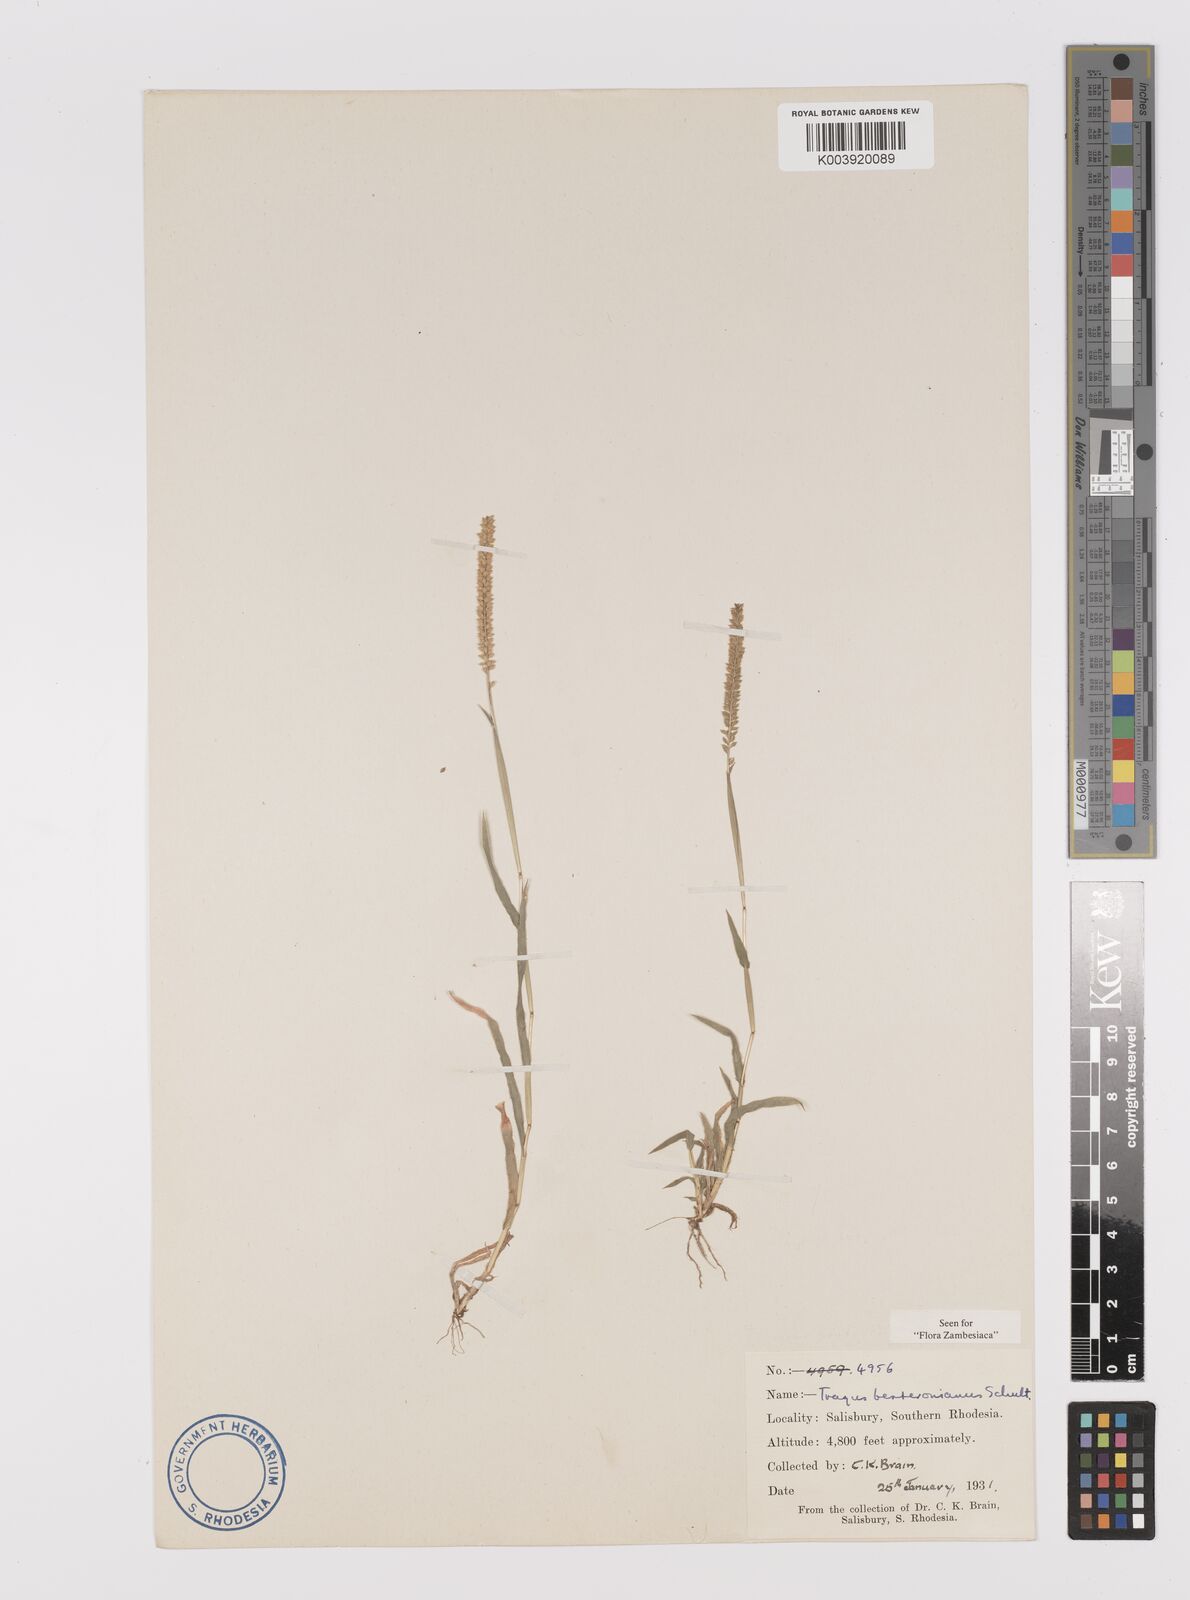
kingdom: Plantae
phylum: Tracheophyta
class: Liliopsida
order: Poales
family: Poaceae
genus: Tragus
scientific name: Tragus berteronianus
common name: African bur-grass
